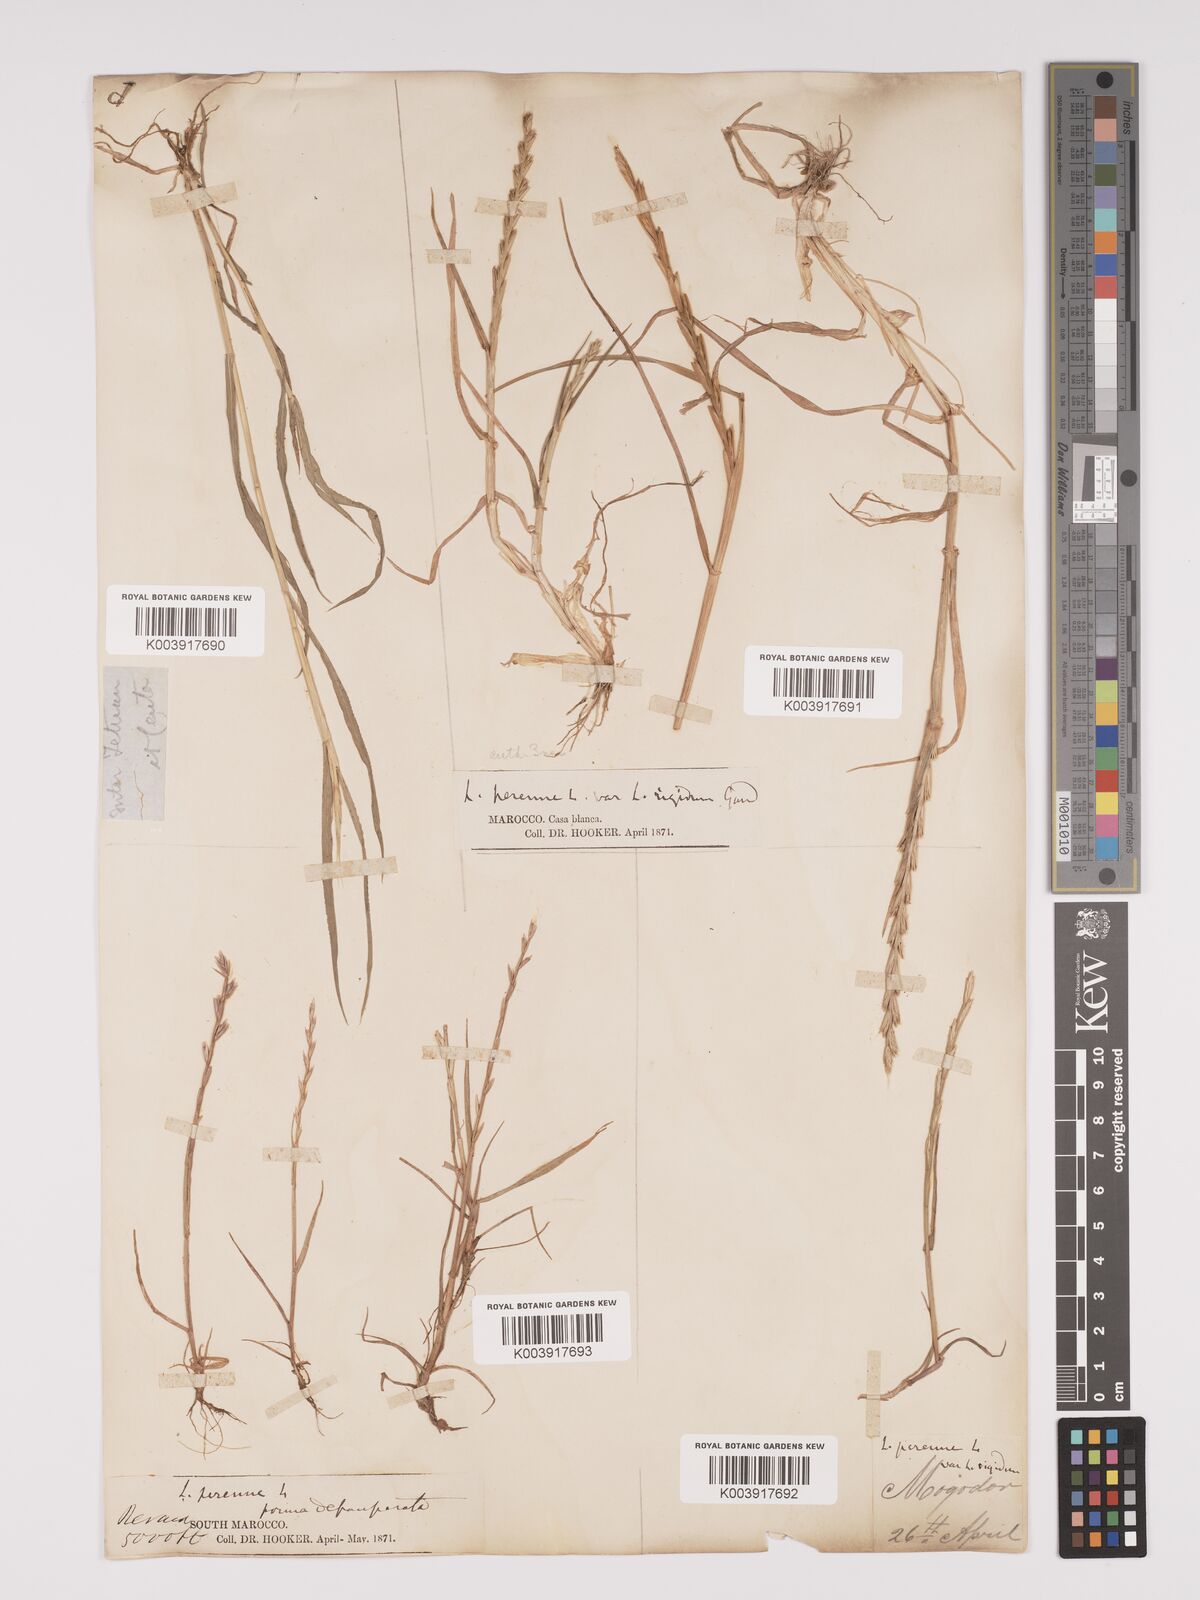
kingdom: Plantae
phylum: Tracheophyta
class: Liliopsida
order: Poales
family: Poaceae
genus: Lolium
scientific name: Lolium rigidum
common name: Wimmera ryegrass
